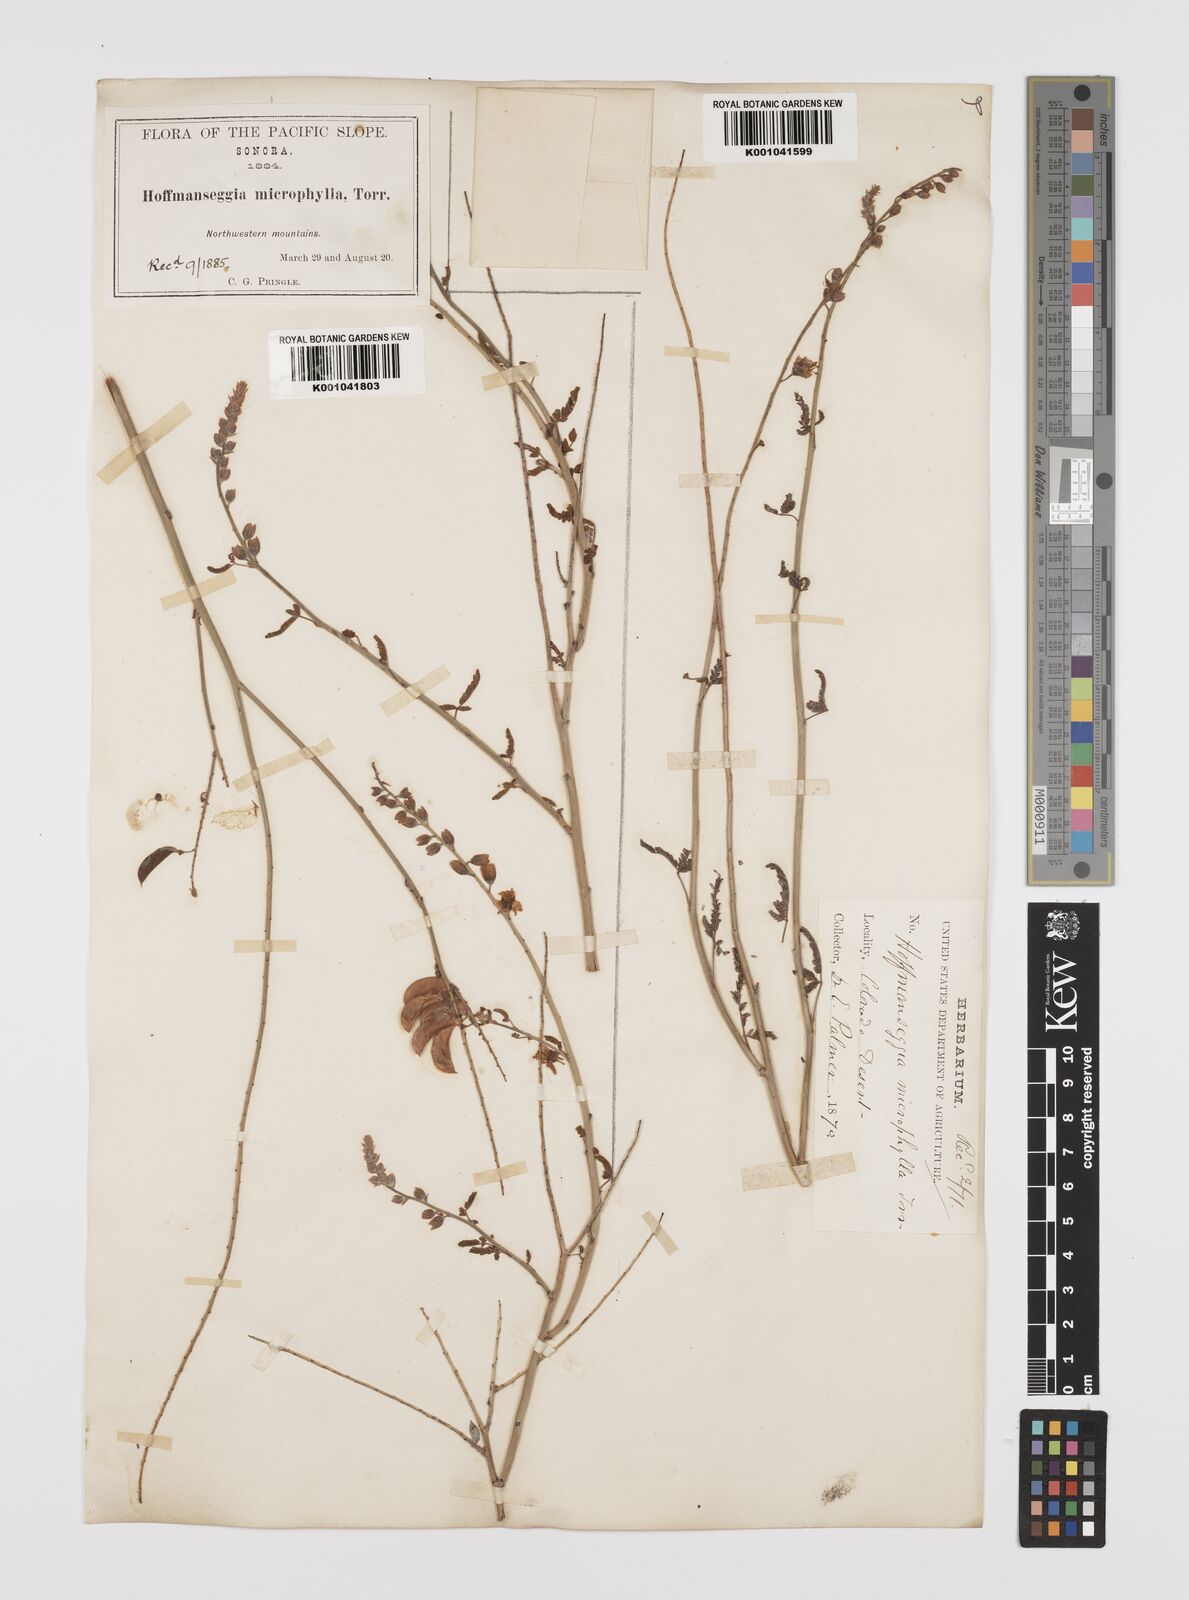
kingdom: Plantae
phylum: Tracheophyta
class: Magnoliopsida
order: Fabales
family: Fabaceae
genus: Hoffmannseggia
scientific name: Hoffmannseggia microphylla
